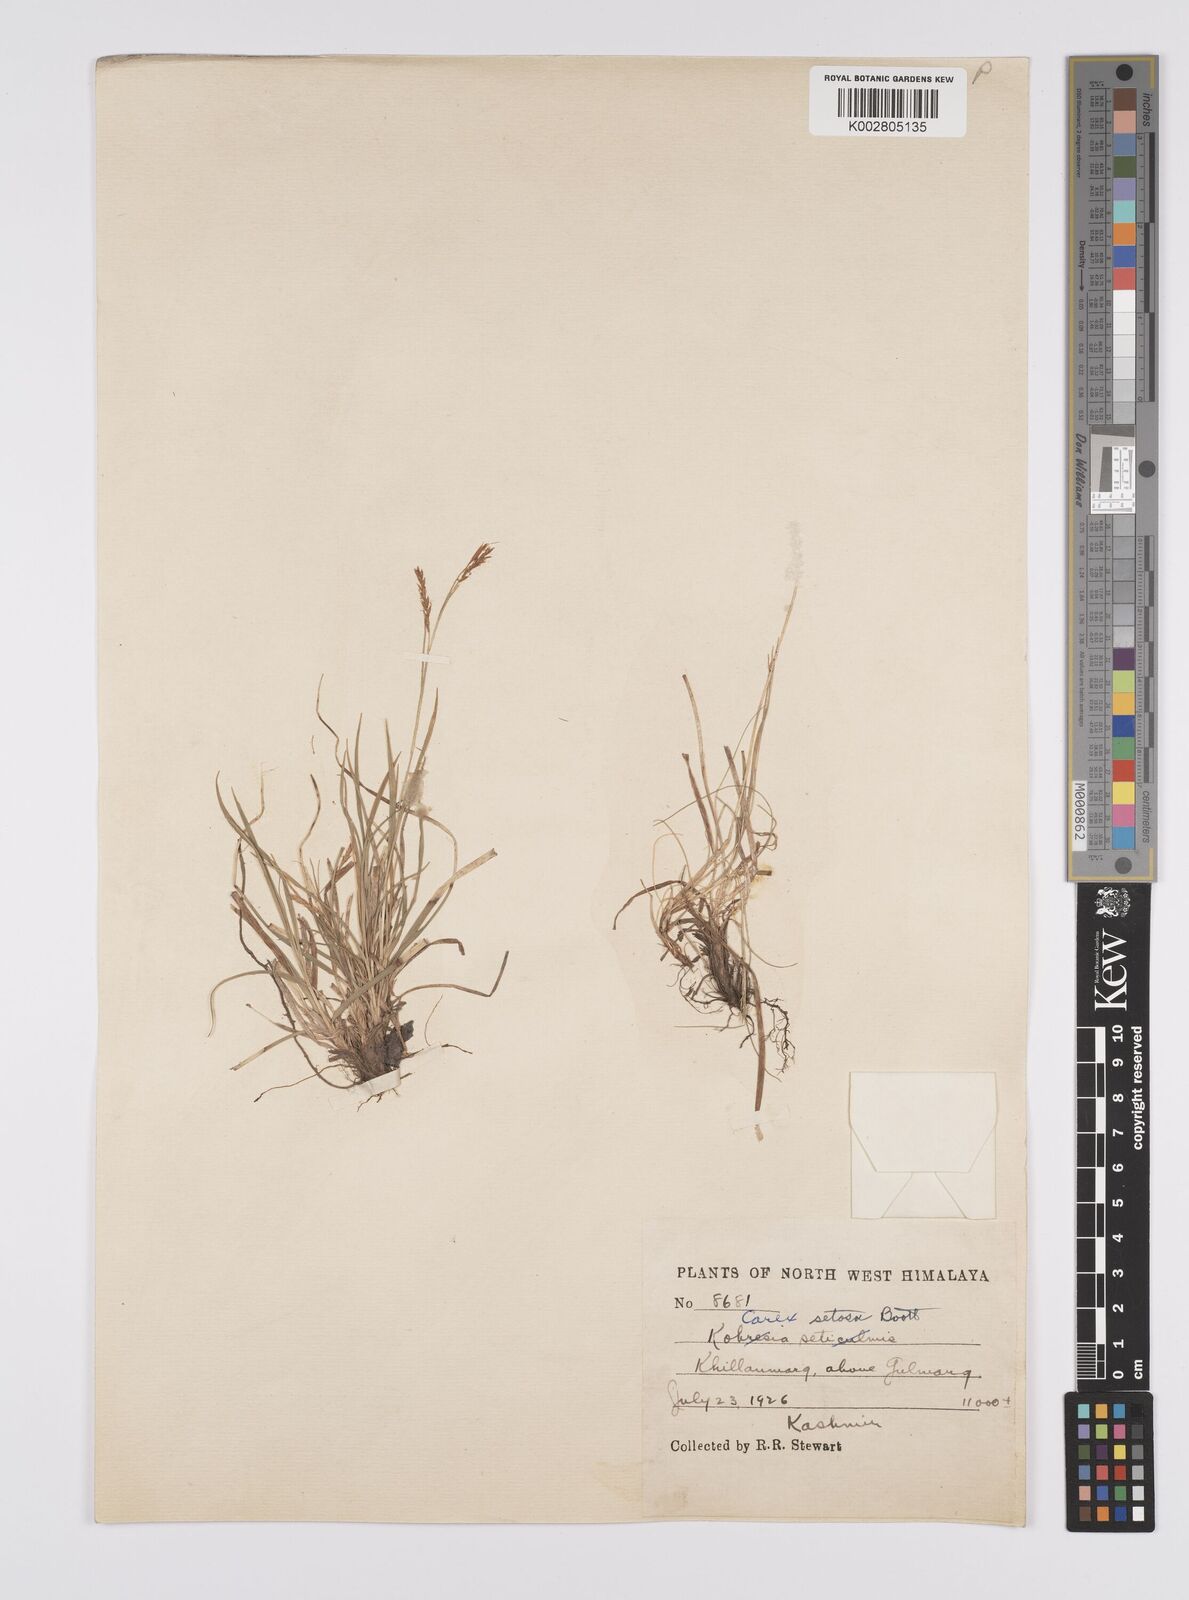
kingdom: Plantae
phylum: Tracheophyta
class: Liliopsida
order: Poales
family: Cyperaceae
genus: Carex
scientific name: Carex setosa
